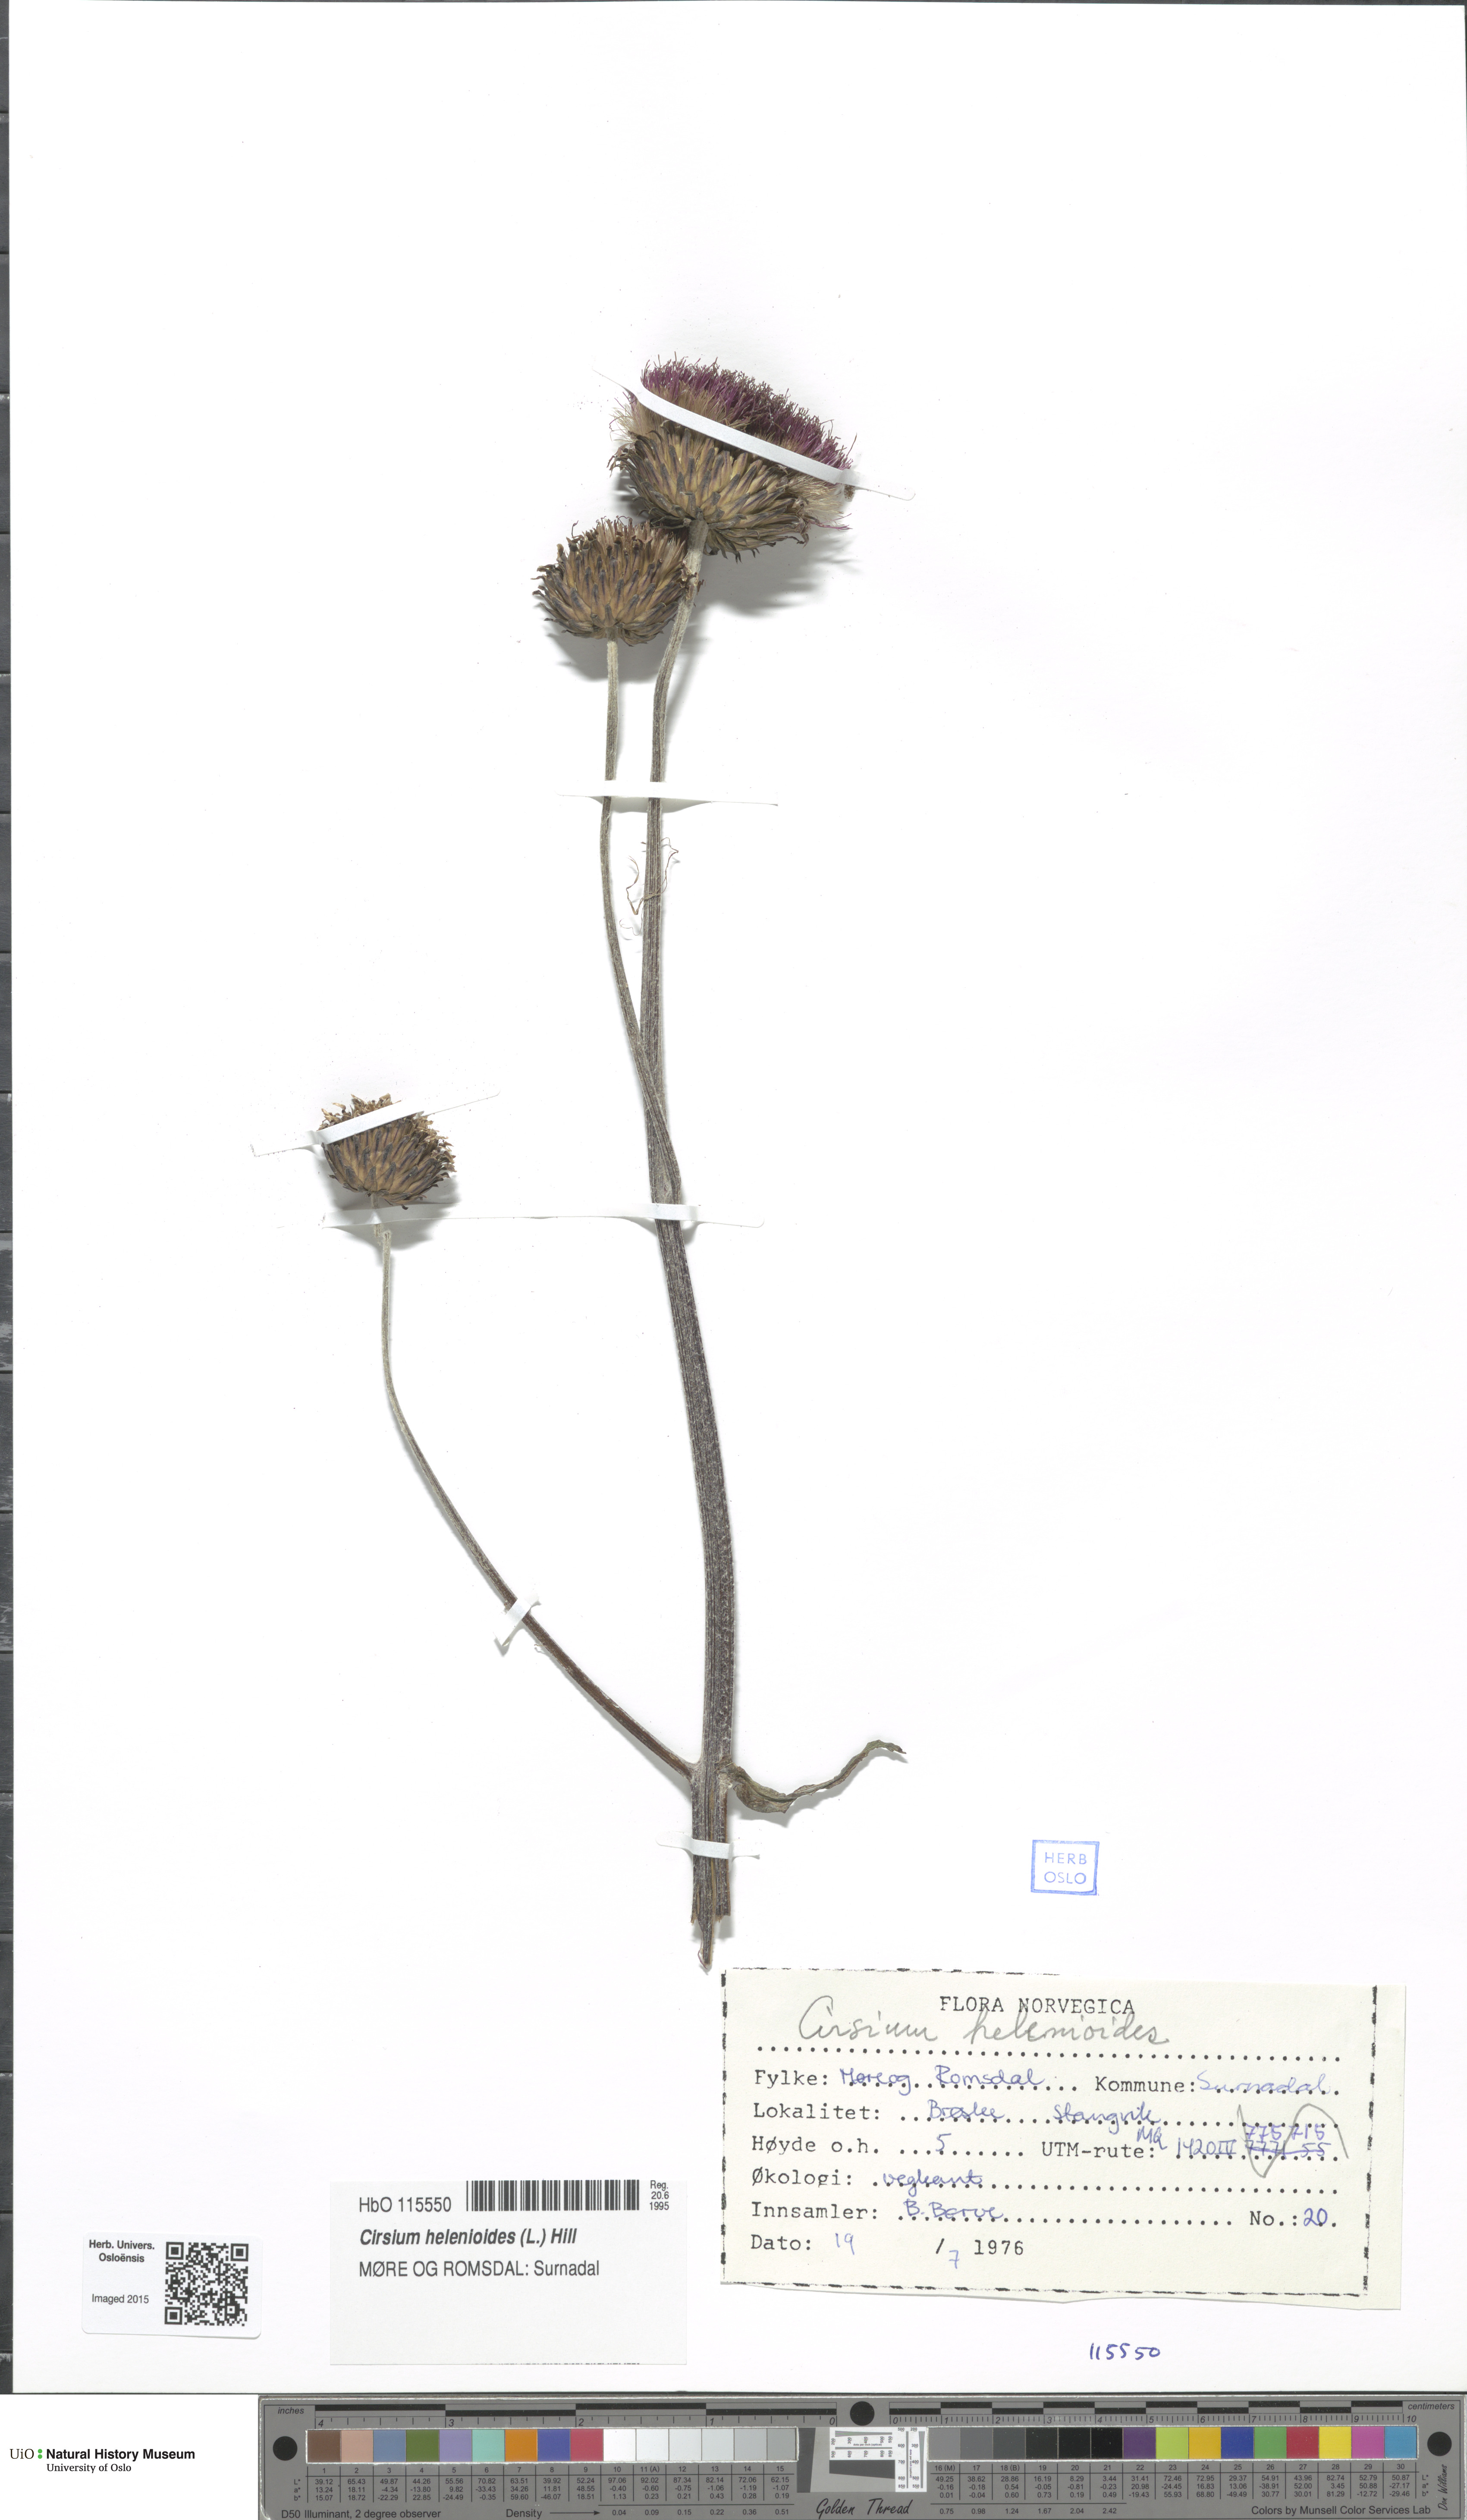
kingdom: Plantae
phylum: Tracheophyta
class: Magnoliopsida
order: Asterales
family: Asteraceae
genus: Cirsium
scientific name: Cirsium heterophyllum
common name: Melancholy thistle
